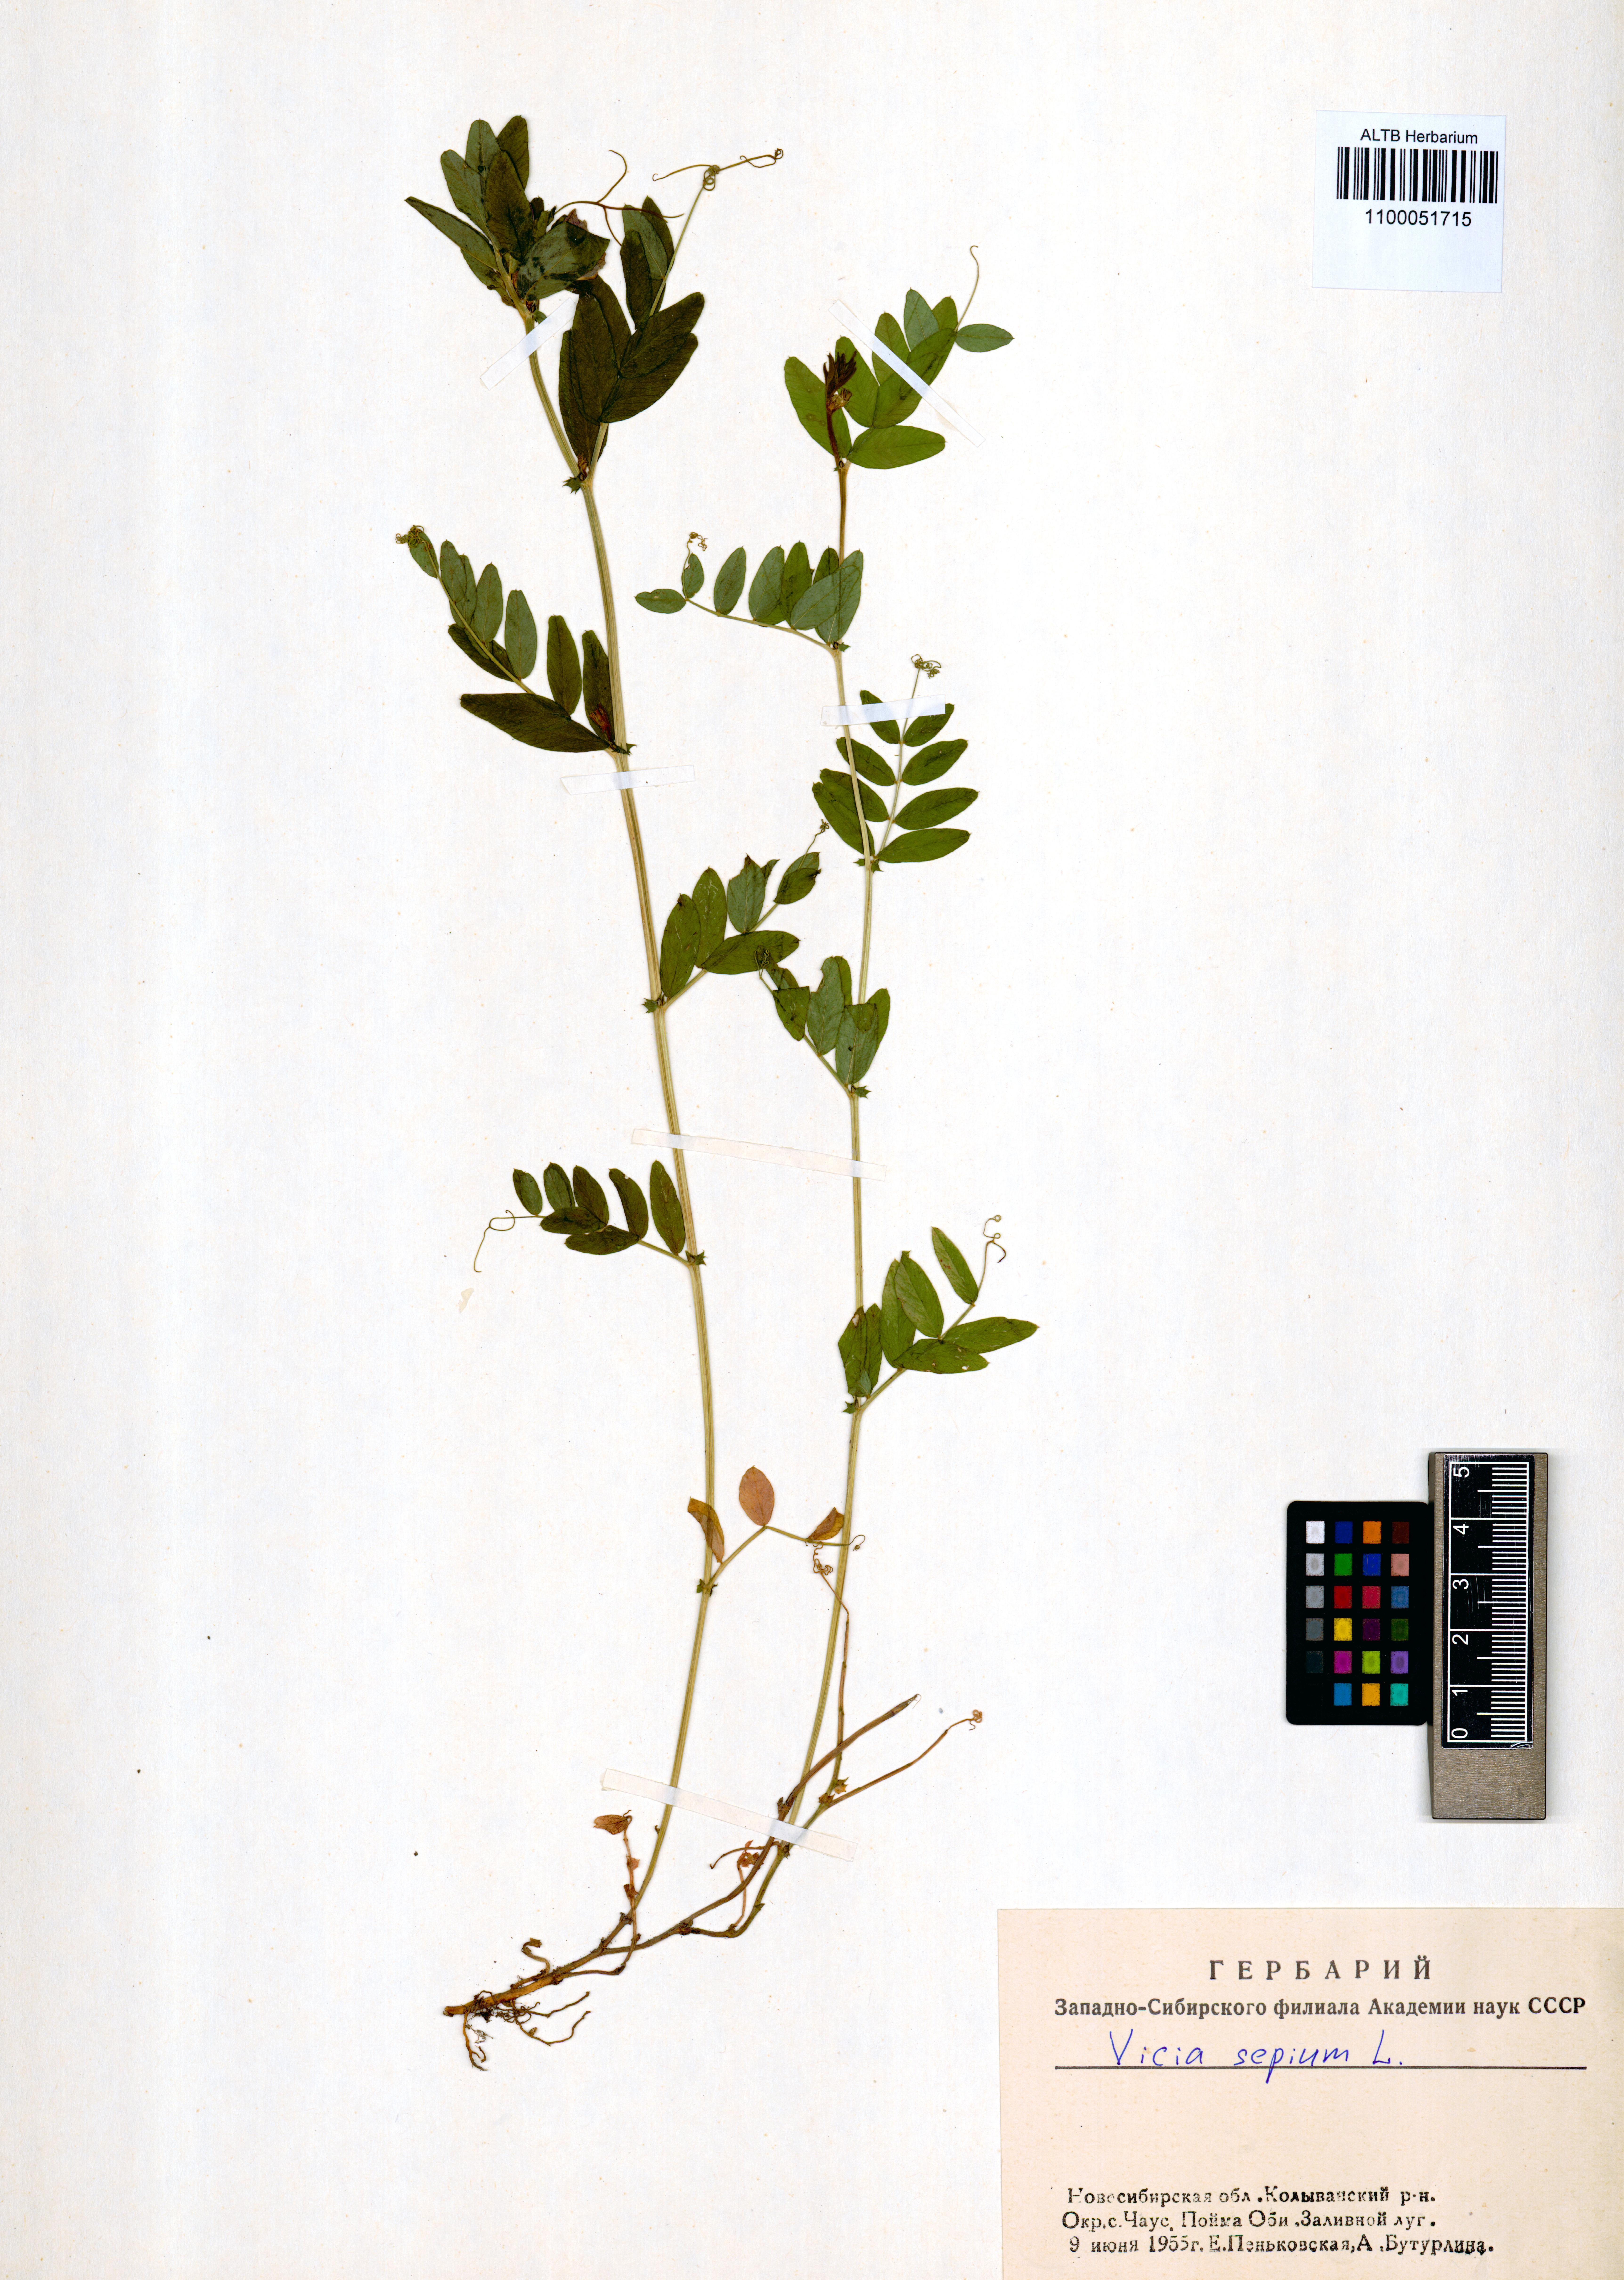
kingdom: Plantae
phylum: Tracheophyta
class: Magnoliopsida
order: Fabales
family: Fabaceae
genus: Vicia
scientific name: Vicia sepium
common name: Bush vetch
